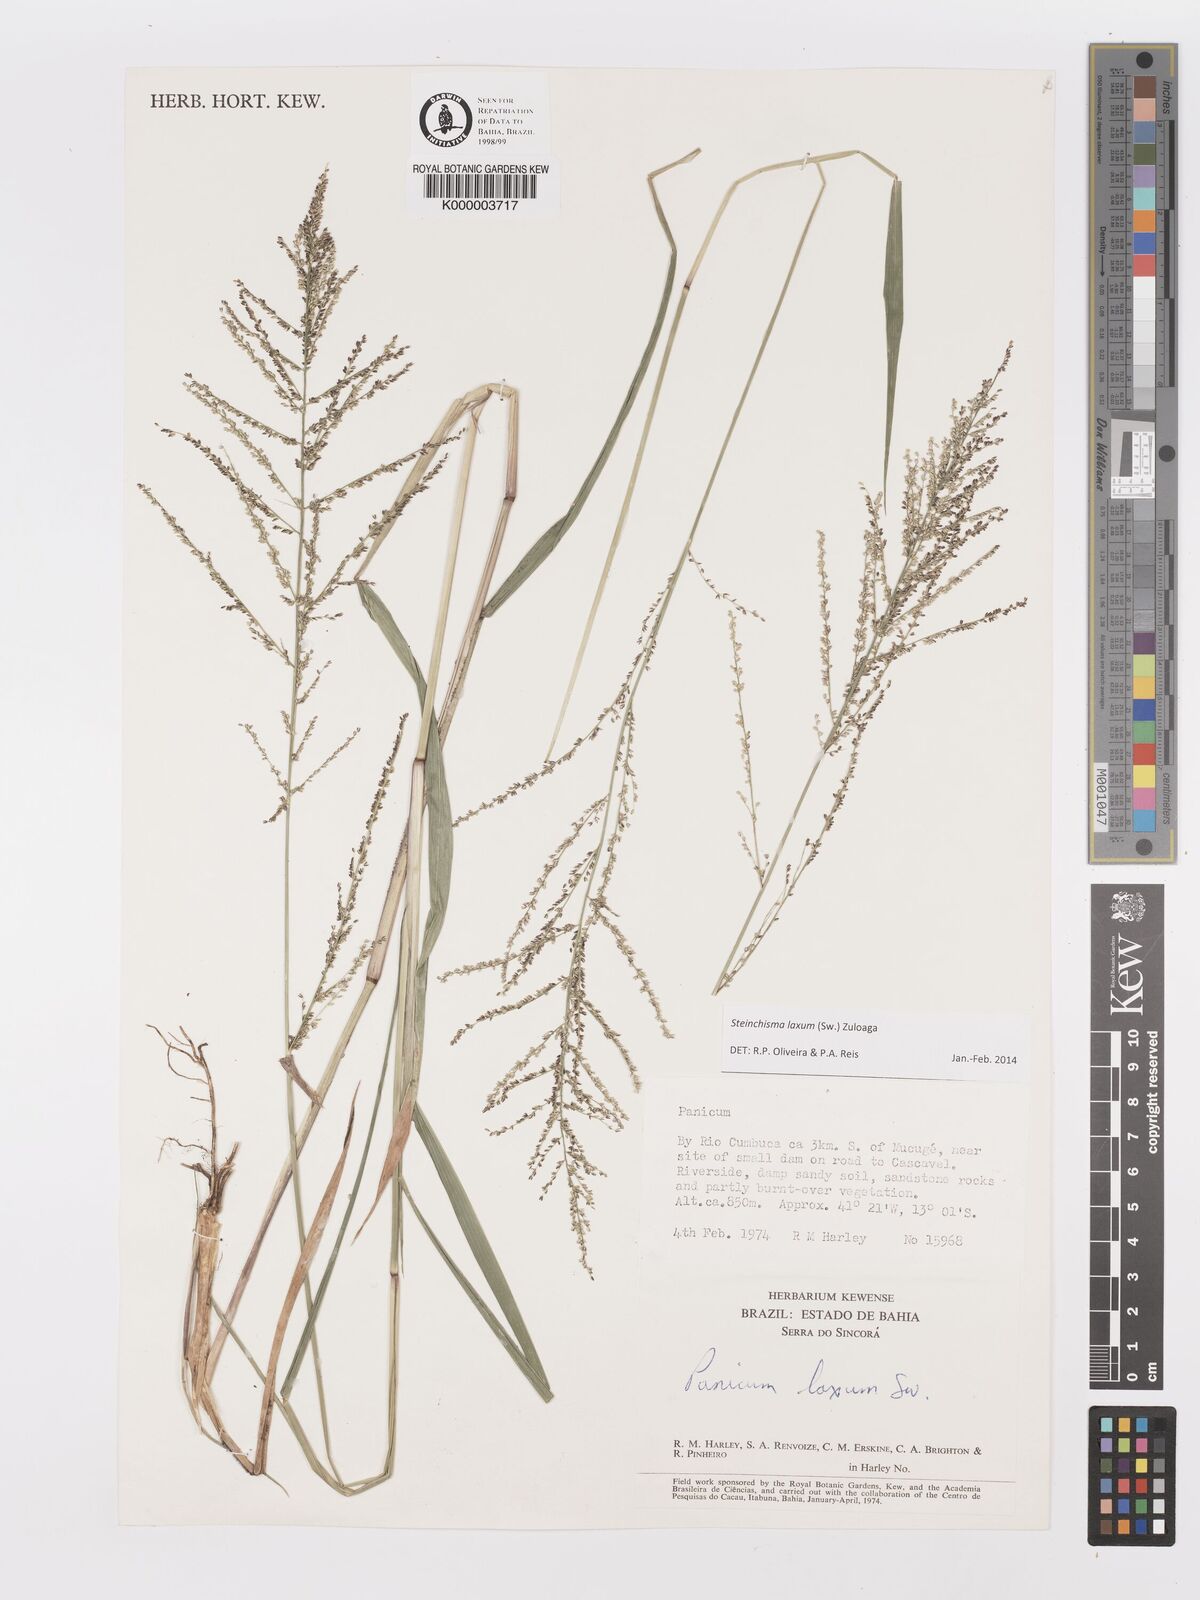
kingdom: Plantae
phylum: Tracheophyta
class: Liliopsida
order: Poales
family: Poaceae
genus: Panicum
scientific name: Panicum
